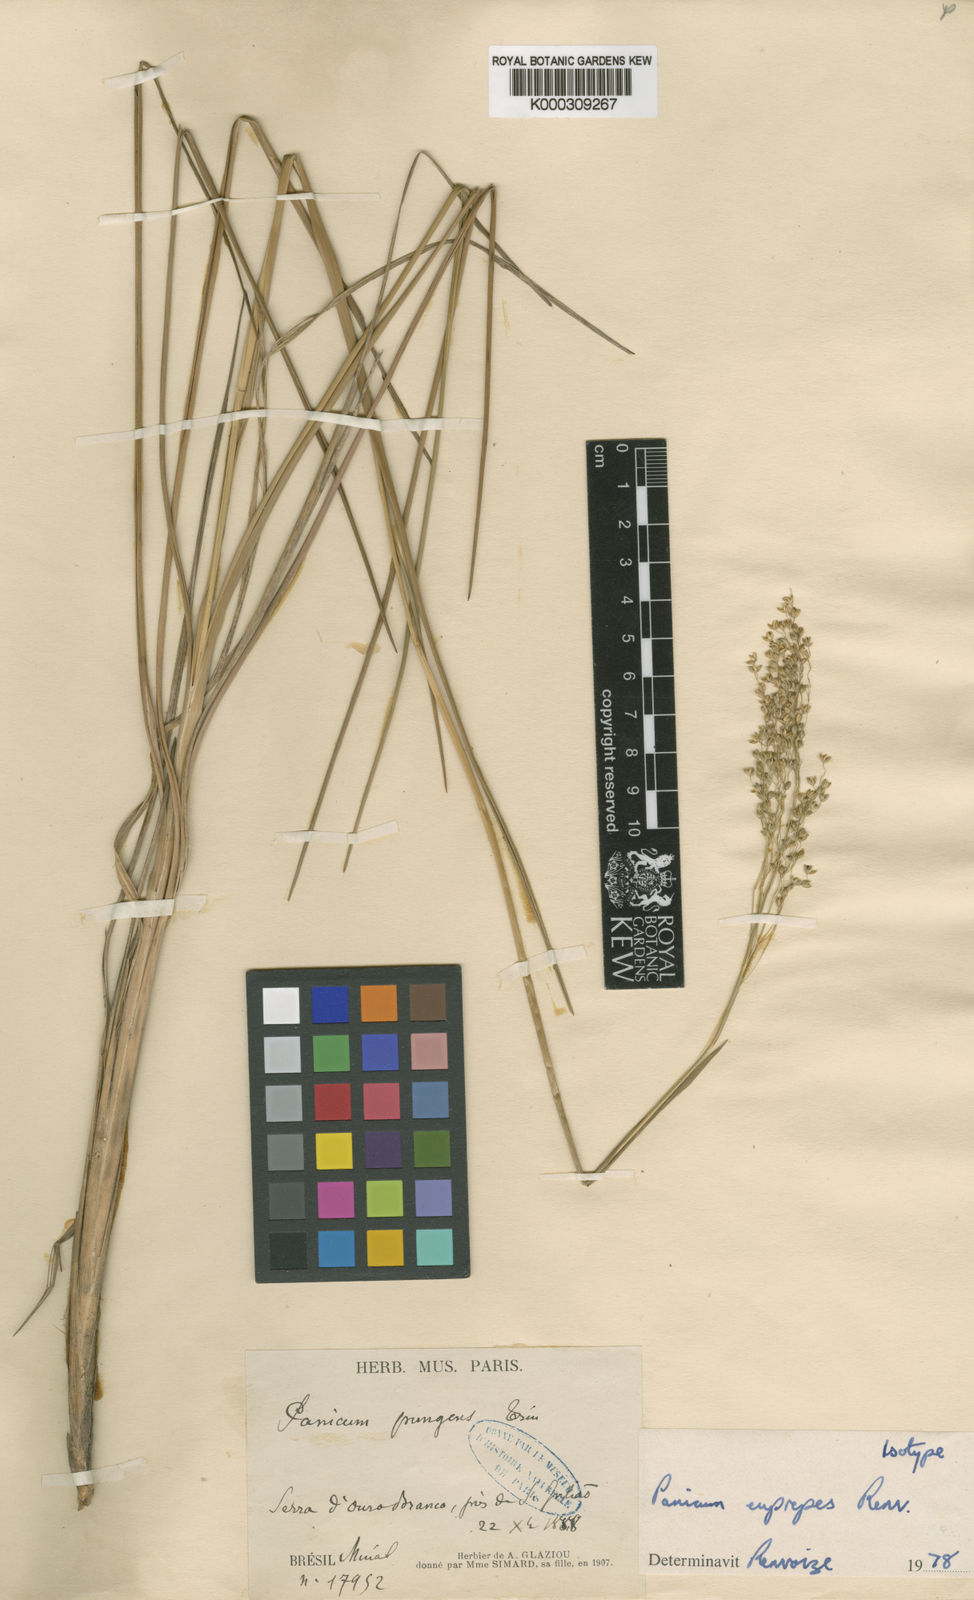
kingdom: Plantae
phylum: Tracheophyta
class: Liliopsida
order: Poales
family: Poaceae
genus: Apochloa
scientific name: Apochloa euprepes
